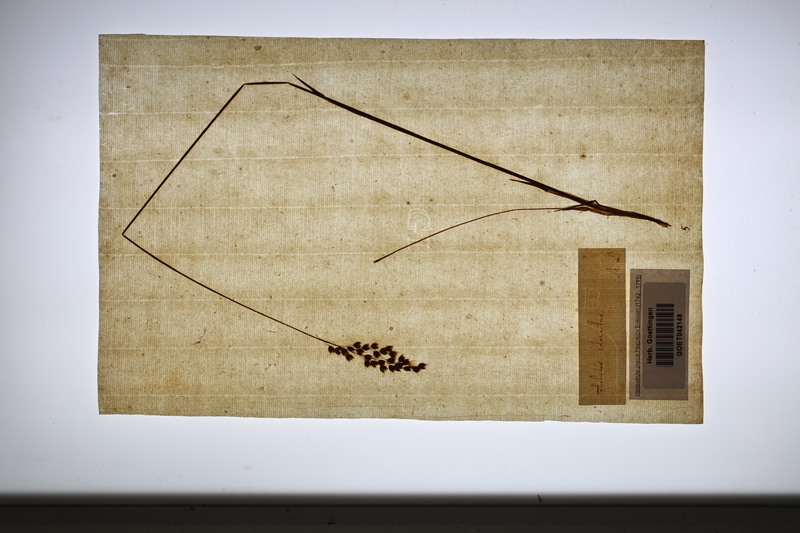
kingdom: Plantae
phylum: Tracheophyta
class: Liliopsida
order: Poales
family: Poaceae
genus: Anthoxanthum
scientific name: Anthoxanthum nitens
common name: Holy grass
